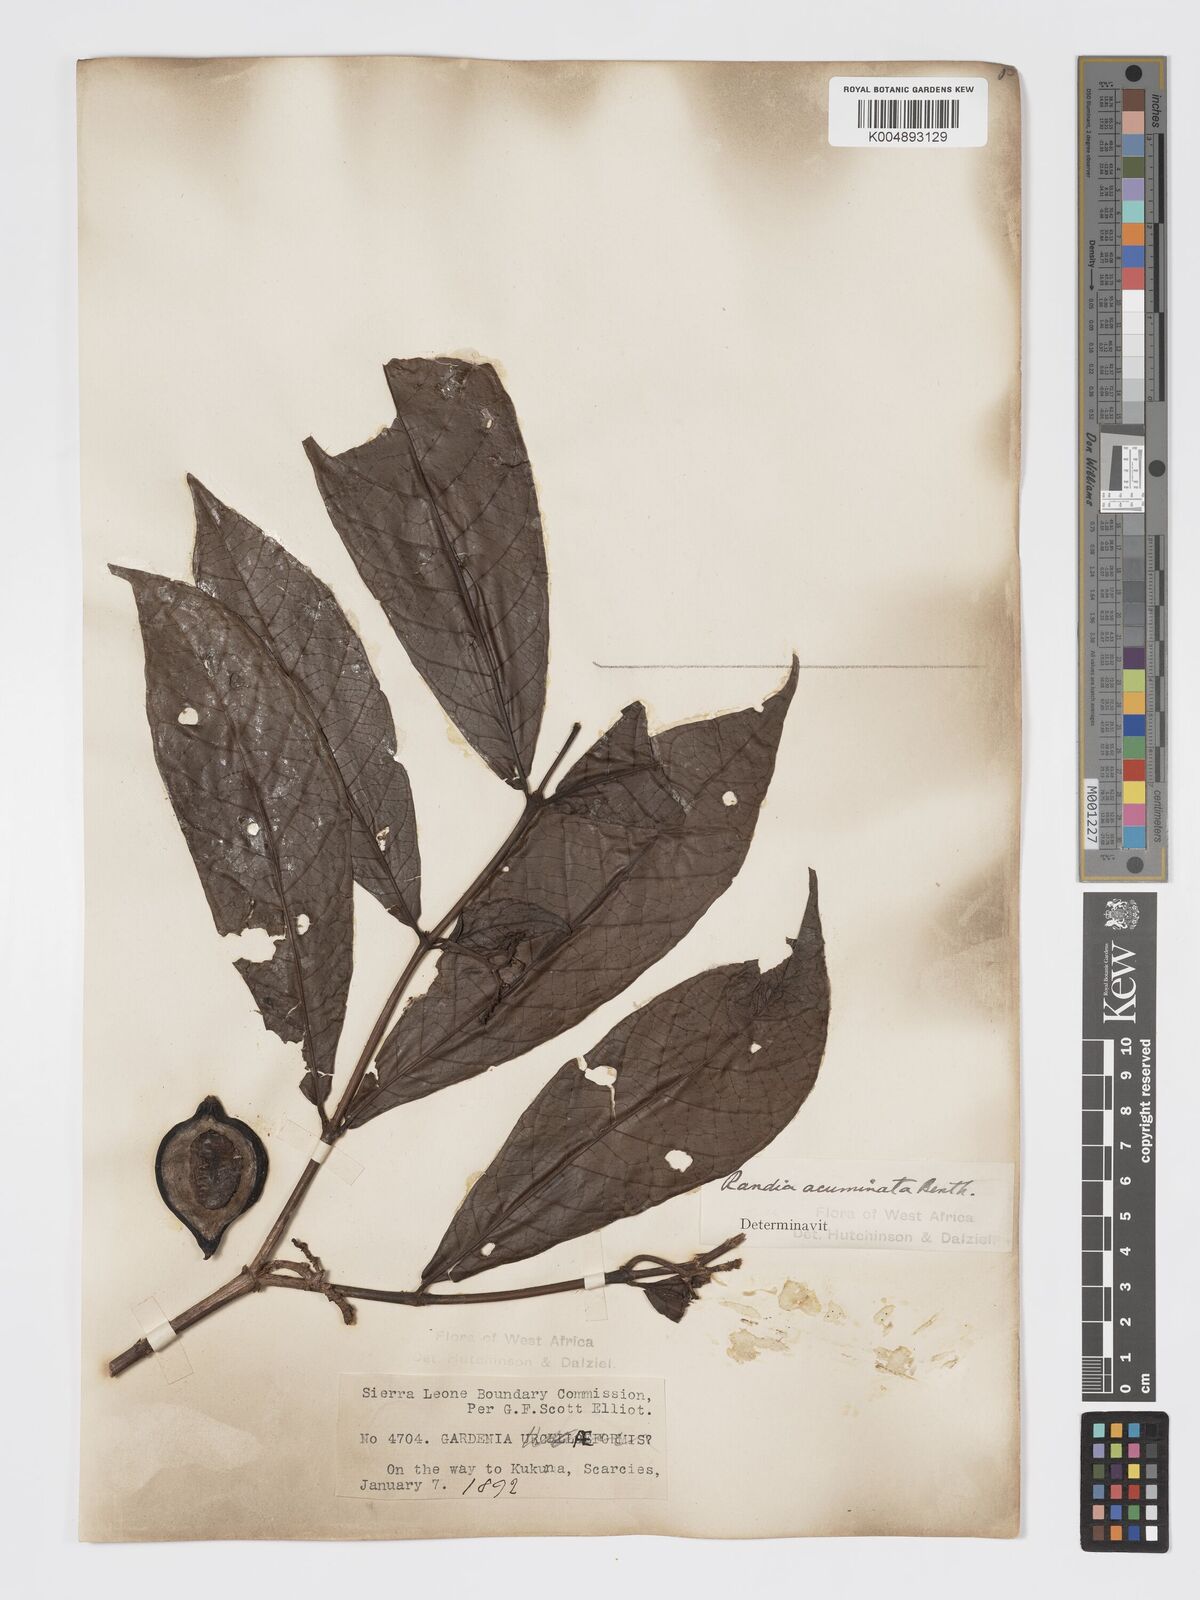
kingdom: Plantae
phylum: Tracheophyta
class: Magnoliopsida
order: Gentianales
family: Rubiaceae
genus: Massularia
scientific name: Massularia acuminata
